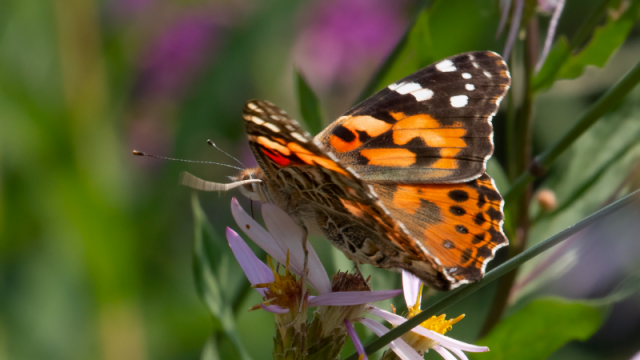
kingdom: Animalia
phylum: Arthropoda
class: Insecta
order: Lepidoptera
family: Nymphalidae
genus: Vanessa
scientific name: Vanessa cardui
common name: Painted Lady
